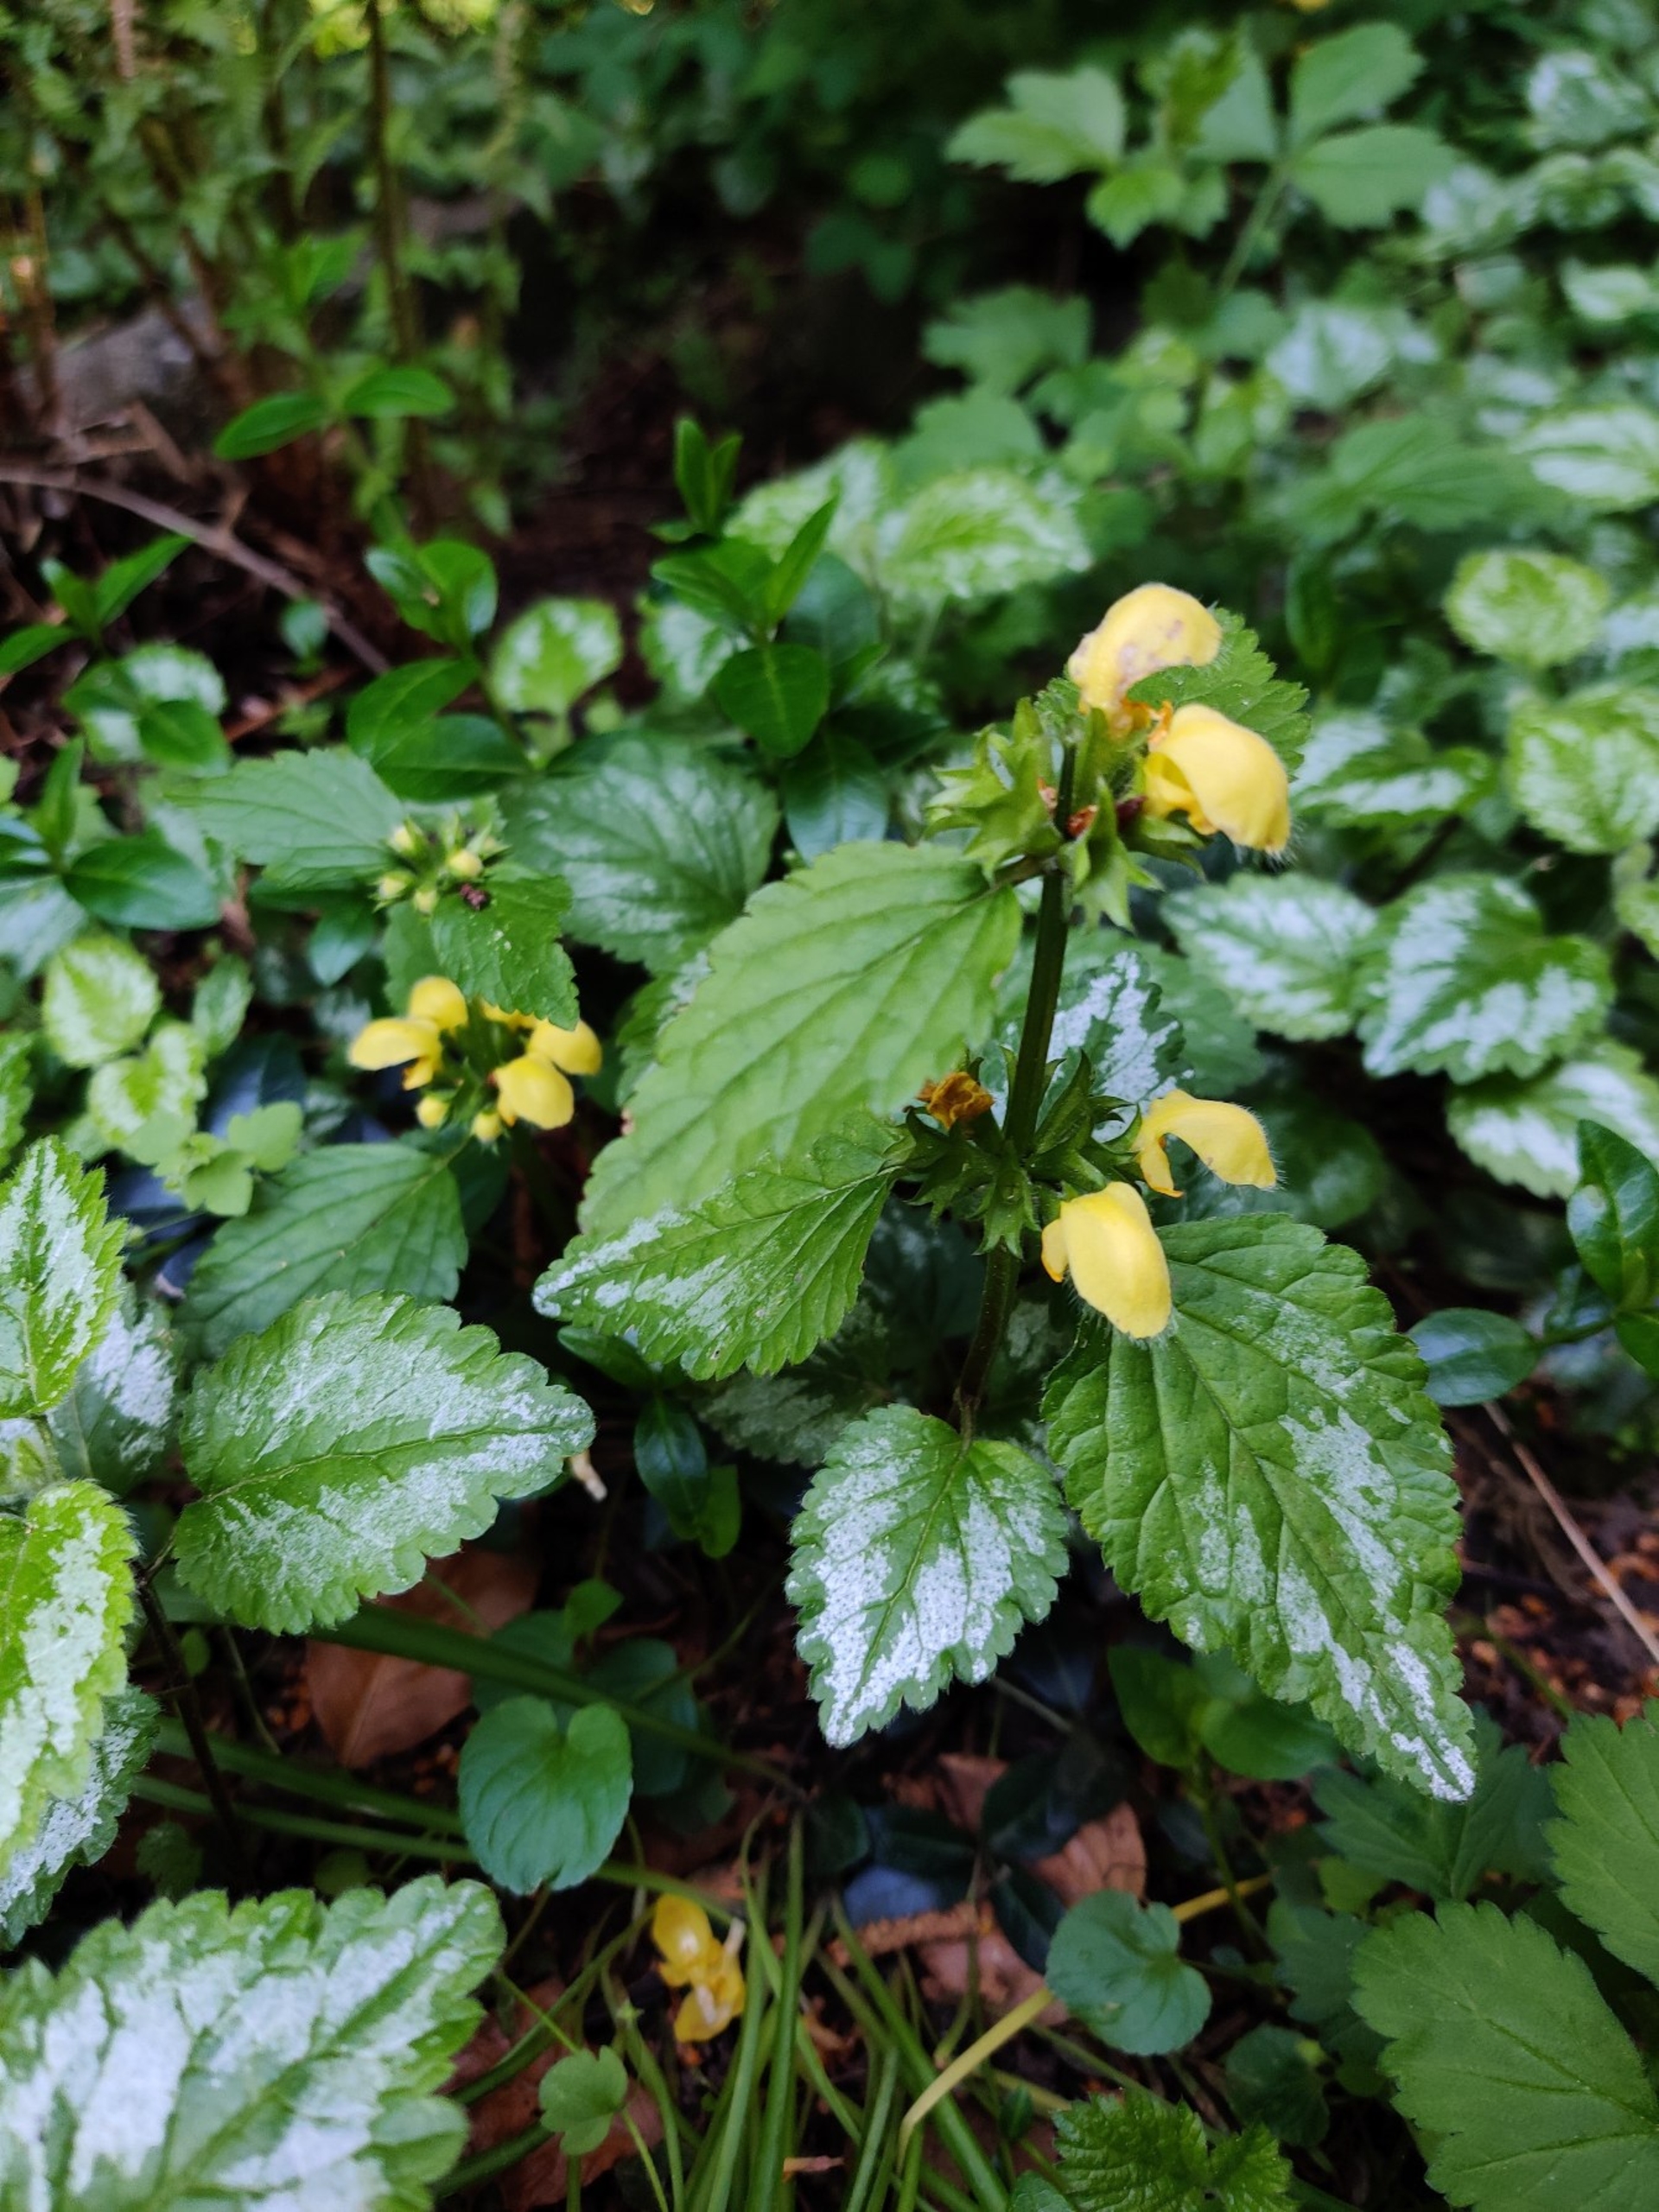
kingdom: Plantae
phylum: Tracheophyta
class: Magnoliopsida
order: Lamiales
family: Lamiaceae
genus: Lamium
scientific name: Lamium galeobdolon
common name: Have-guldnælde
